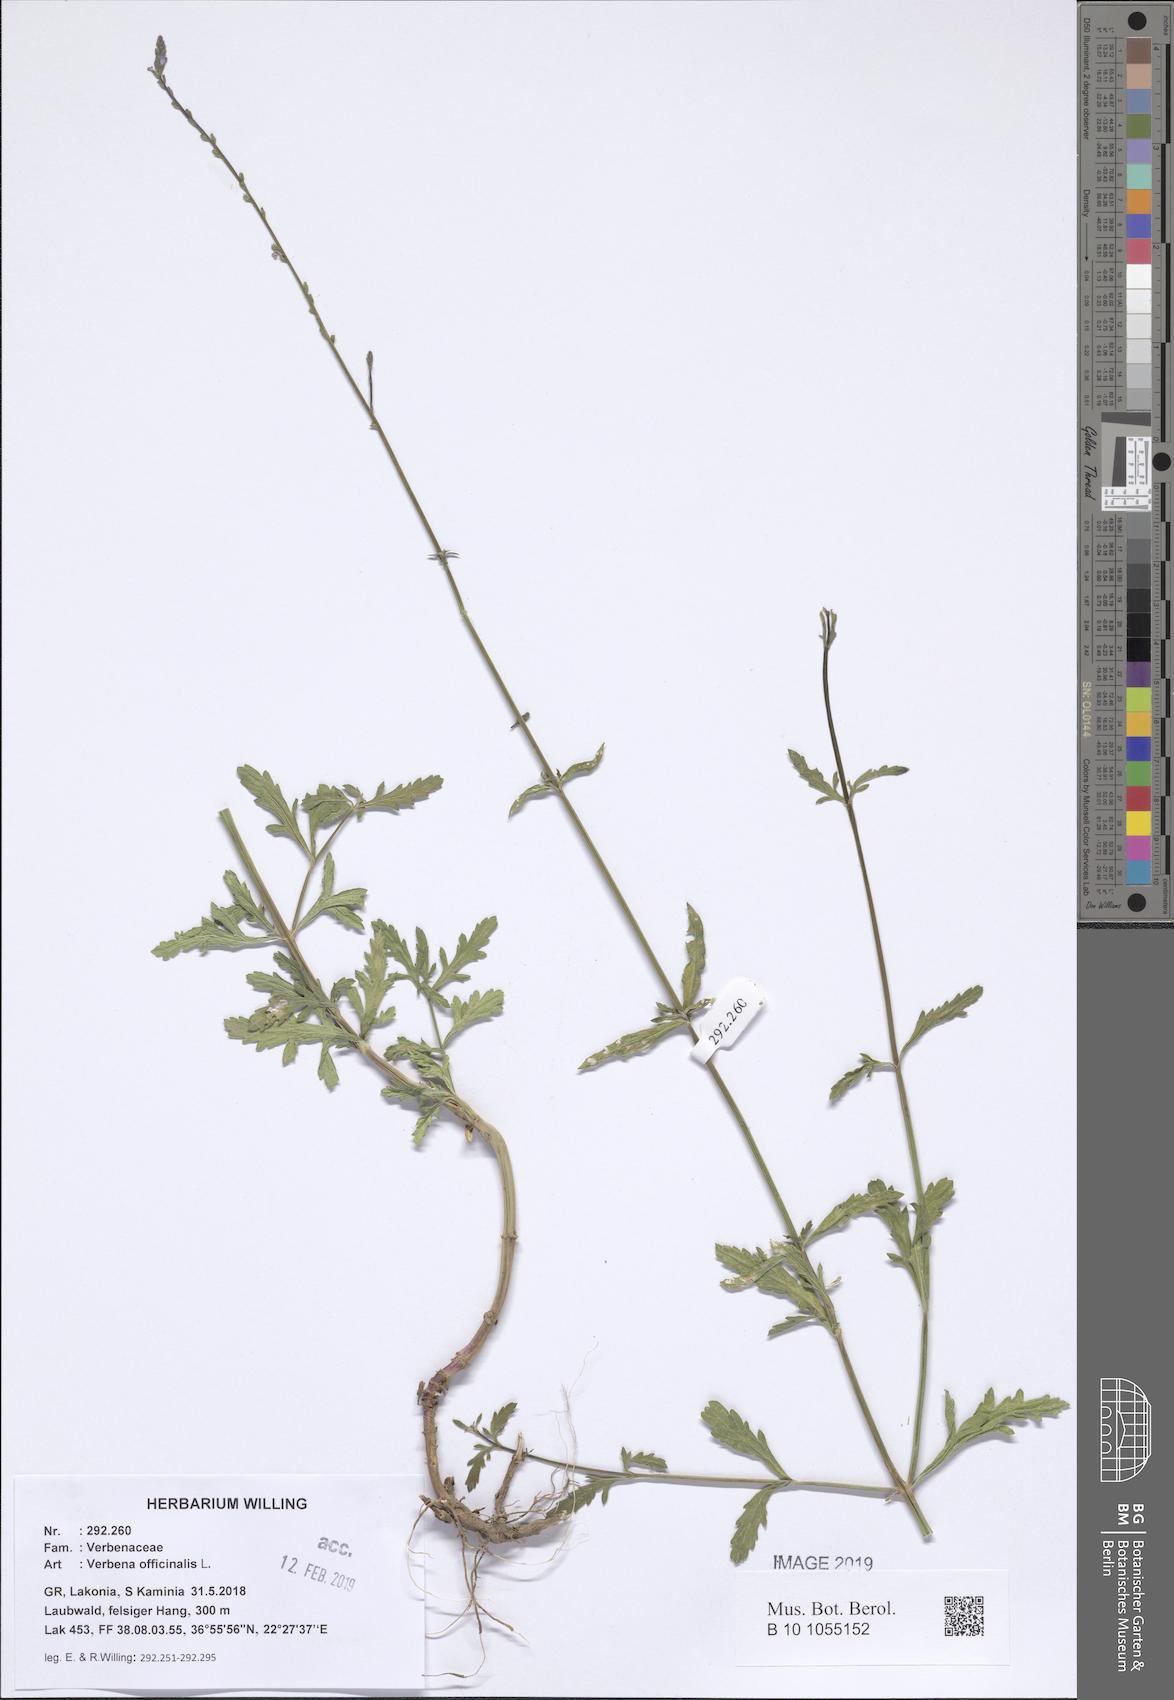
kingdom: Plantae
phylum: Tracheophyta
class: Magnoliopsida
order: Lamiales
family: Verbenaceae
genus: Verbena
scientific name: Verbena officinalis
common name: Vervain
